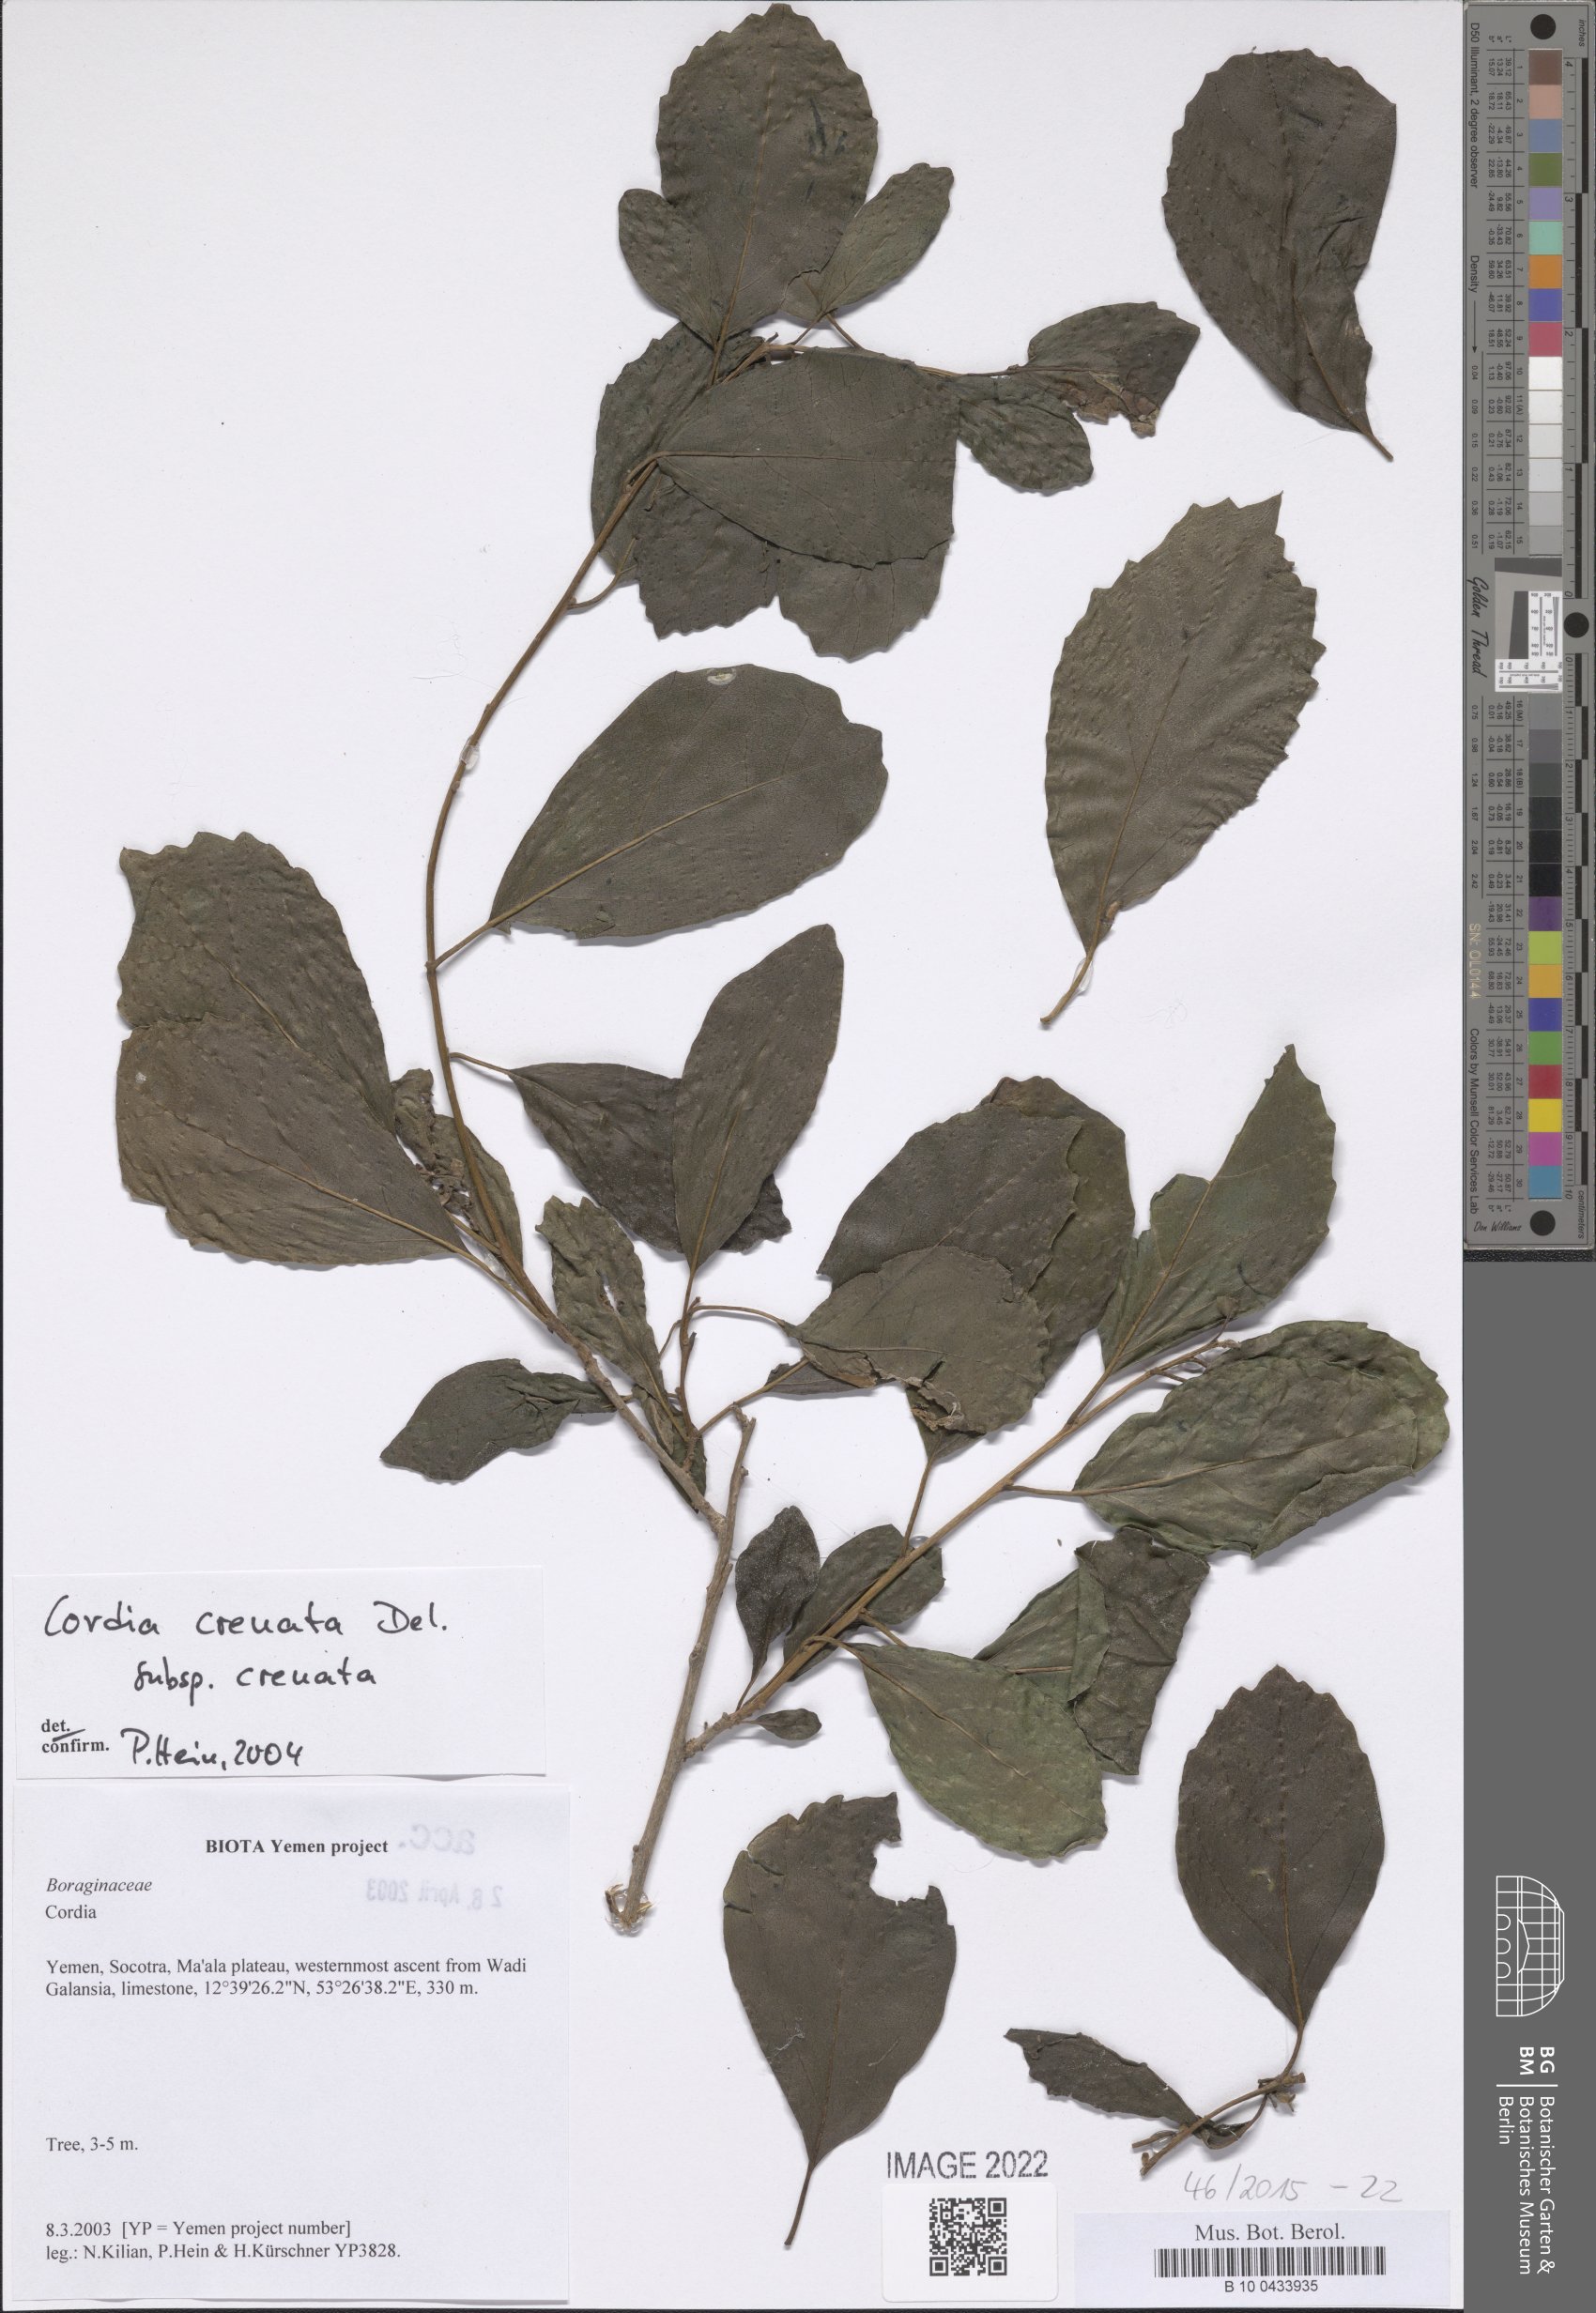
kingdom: Plantae
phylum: Tracheophyta
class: Magnoliopsida
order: Boraginales
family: Cordiaceae
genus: Cordia
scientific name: Cordia crenata
